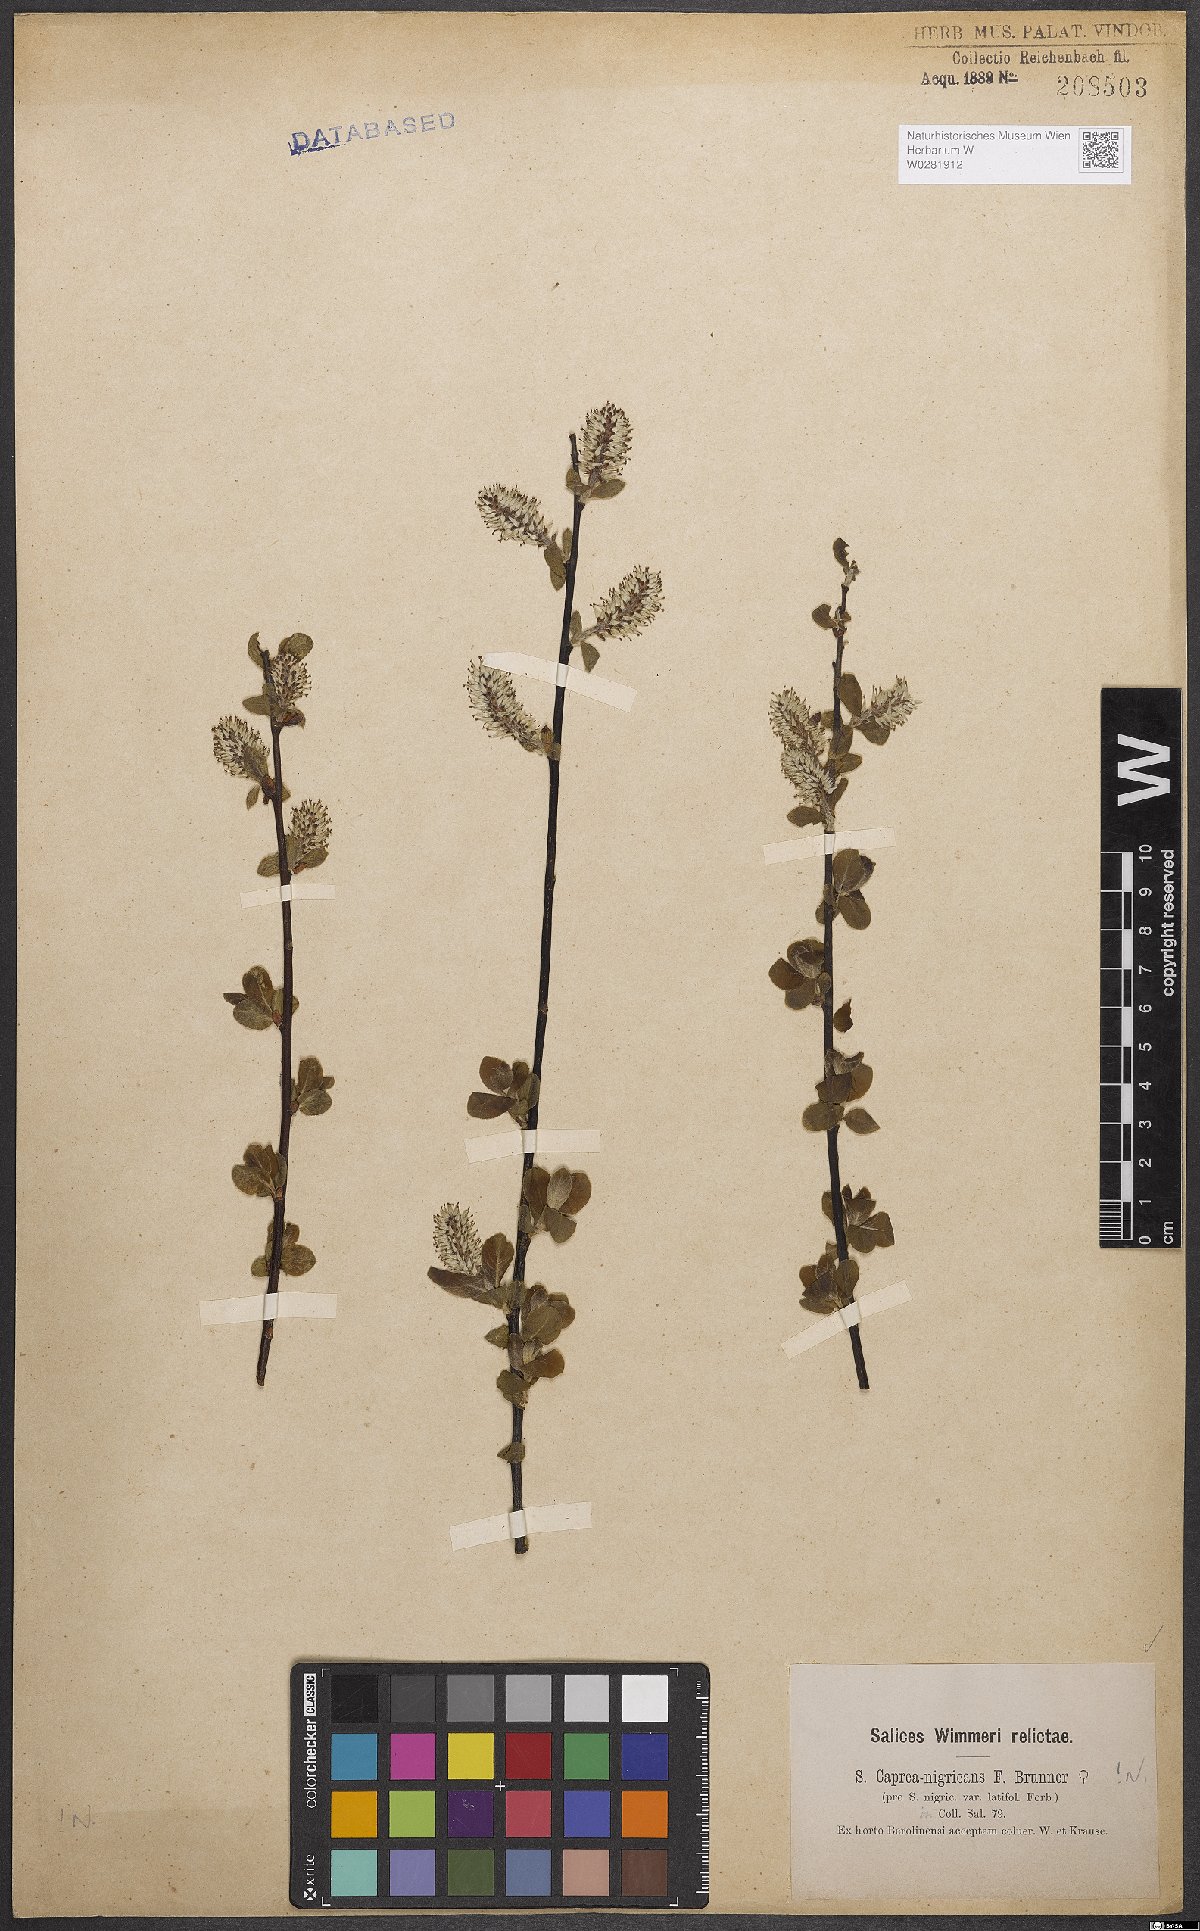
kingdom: Plantae
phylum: Tracheophyta
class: Magnoliopsida
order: Malpighiales
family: Salicaceae
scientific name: Salicaceae
